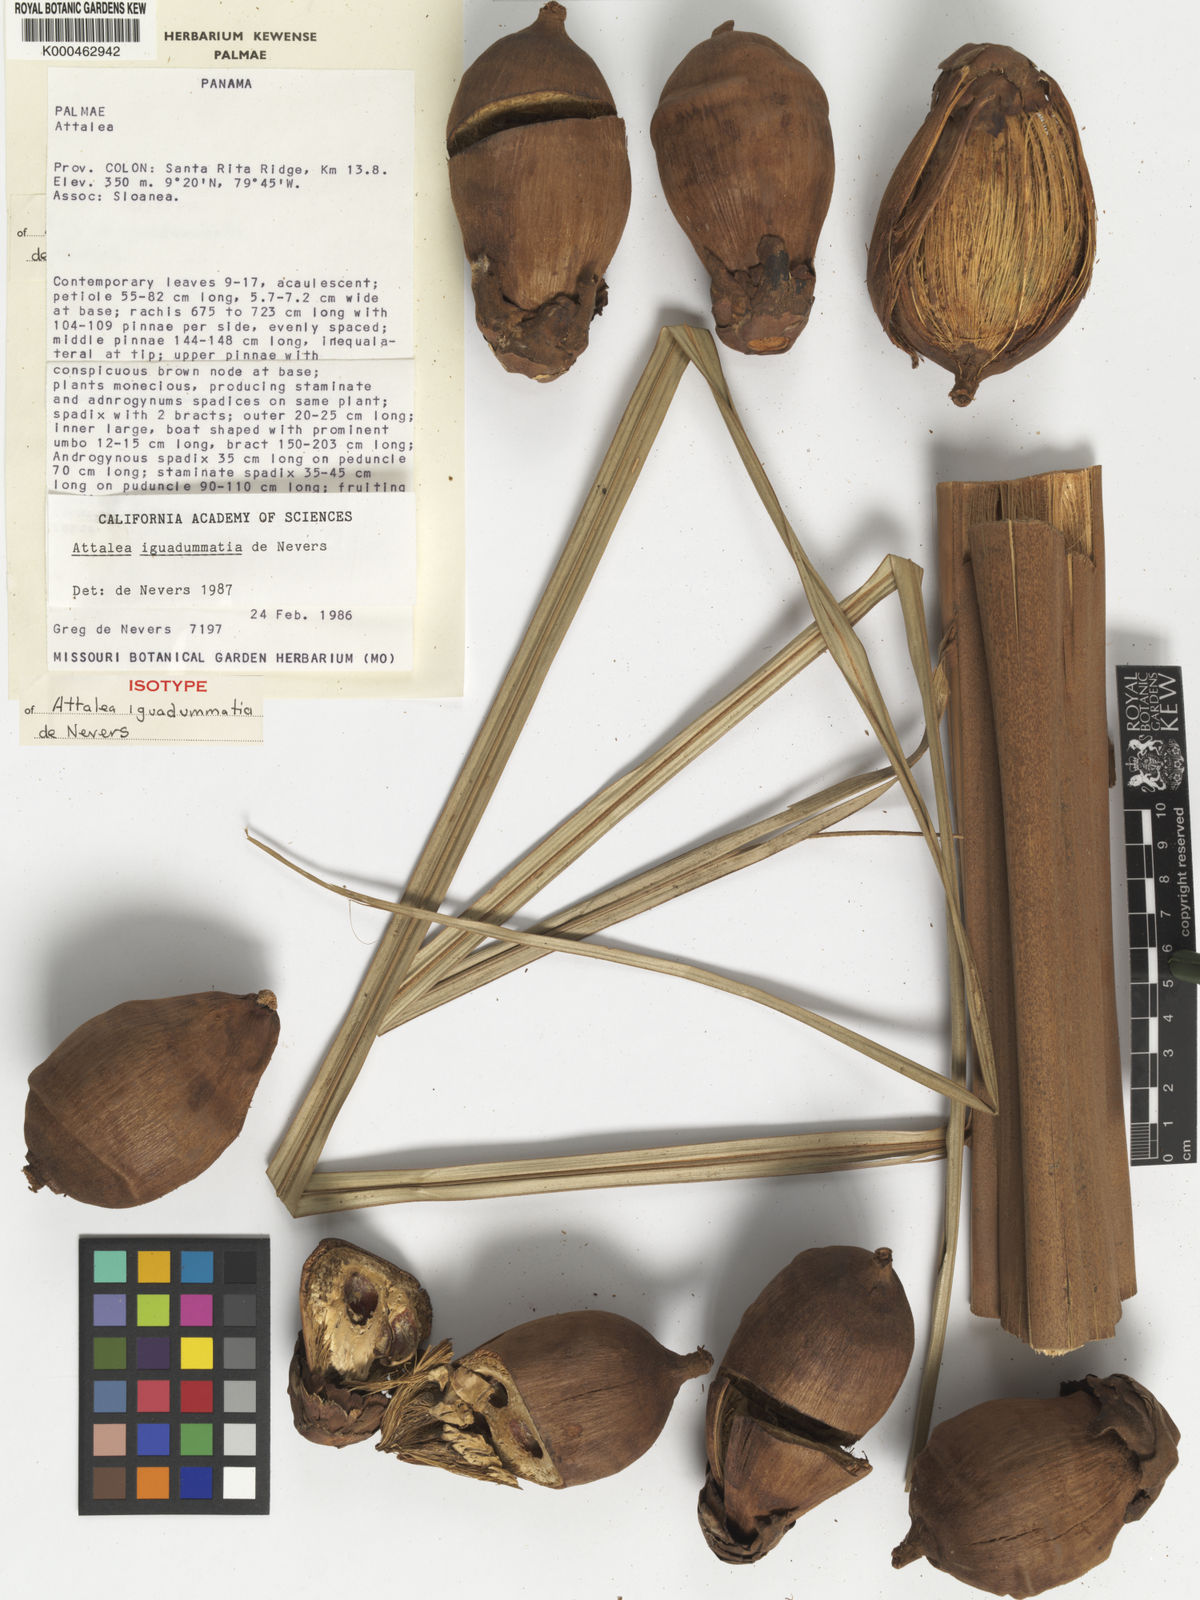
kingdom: Plantae
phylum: Tracheophyta
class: Liliopsida
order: Arecales
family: Arecaceae
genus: Attalea
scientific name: Attalea
